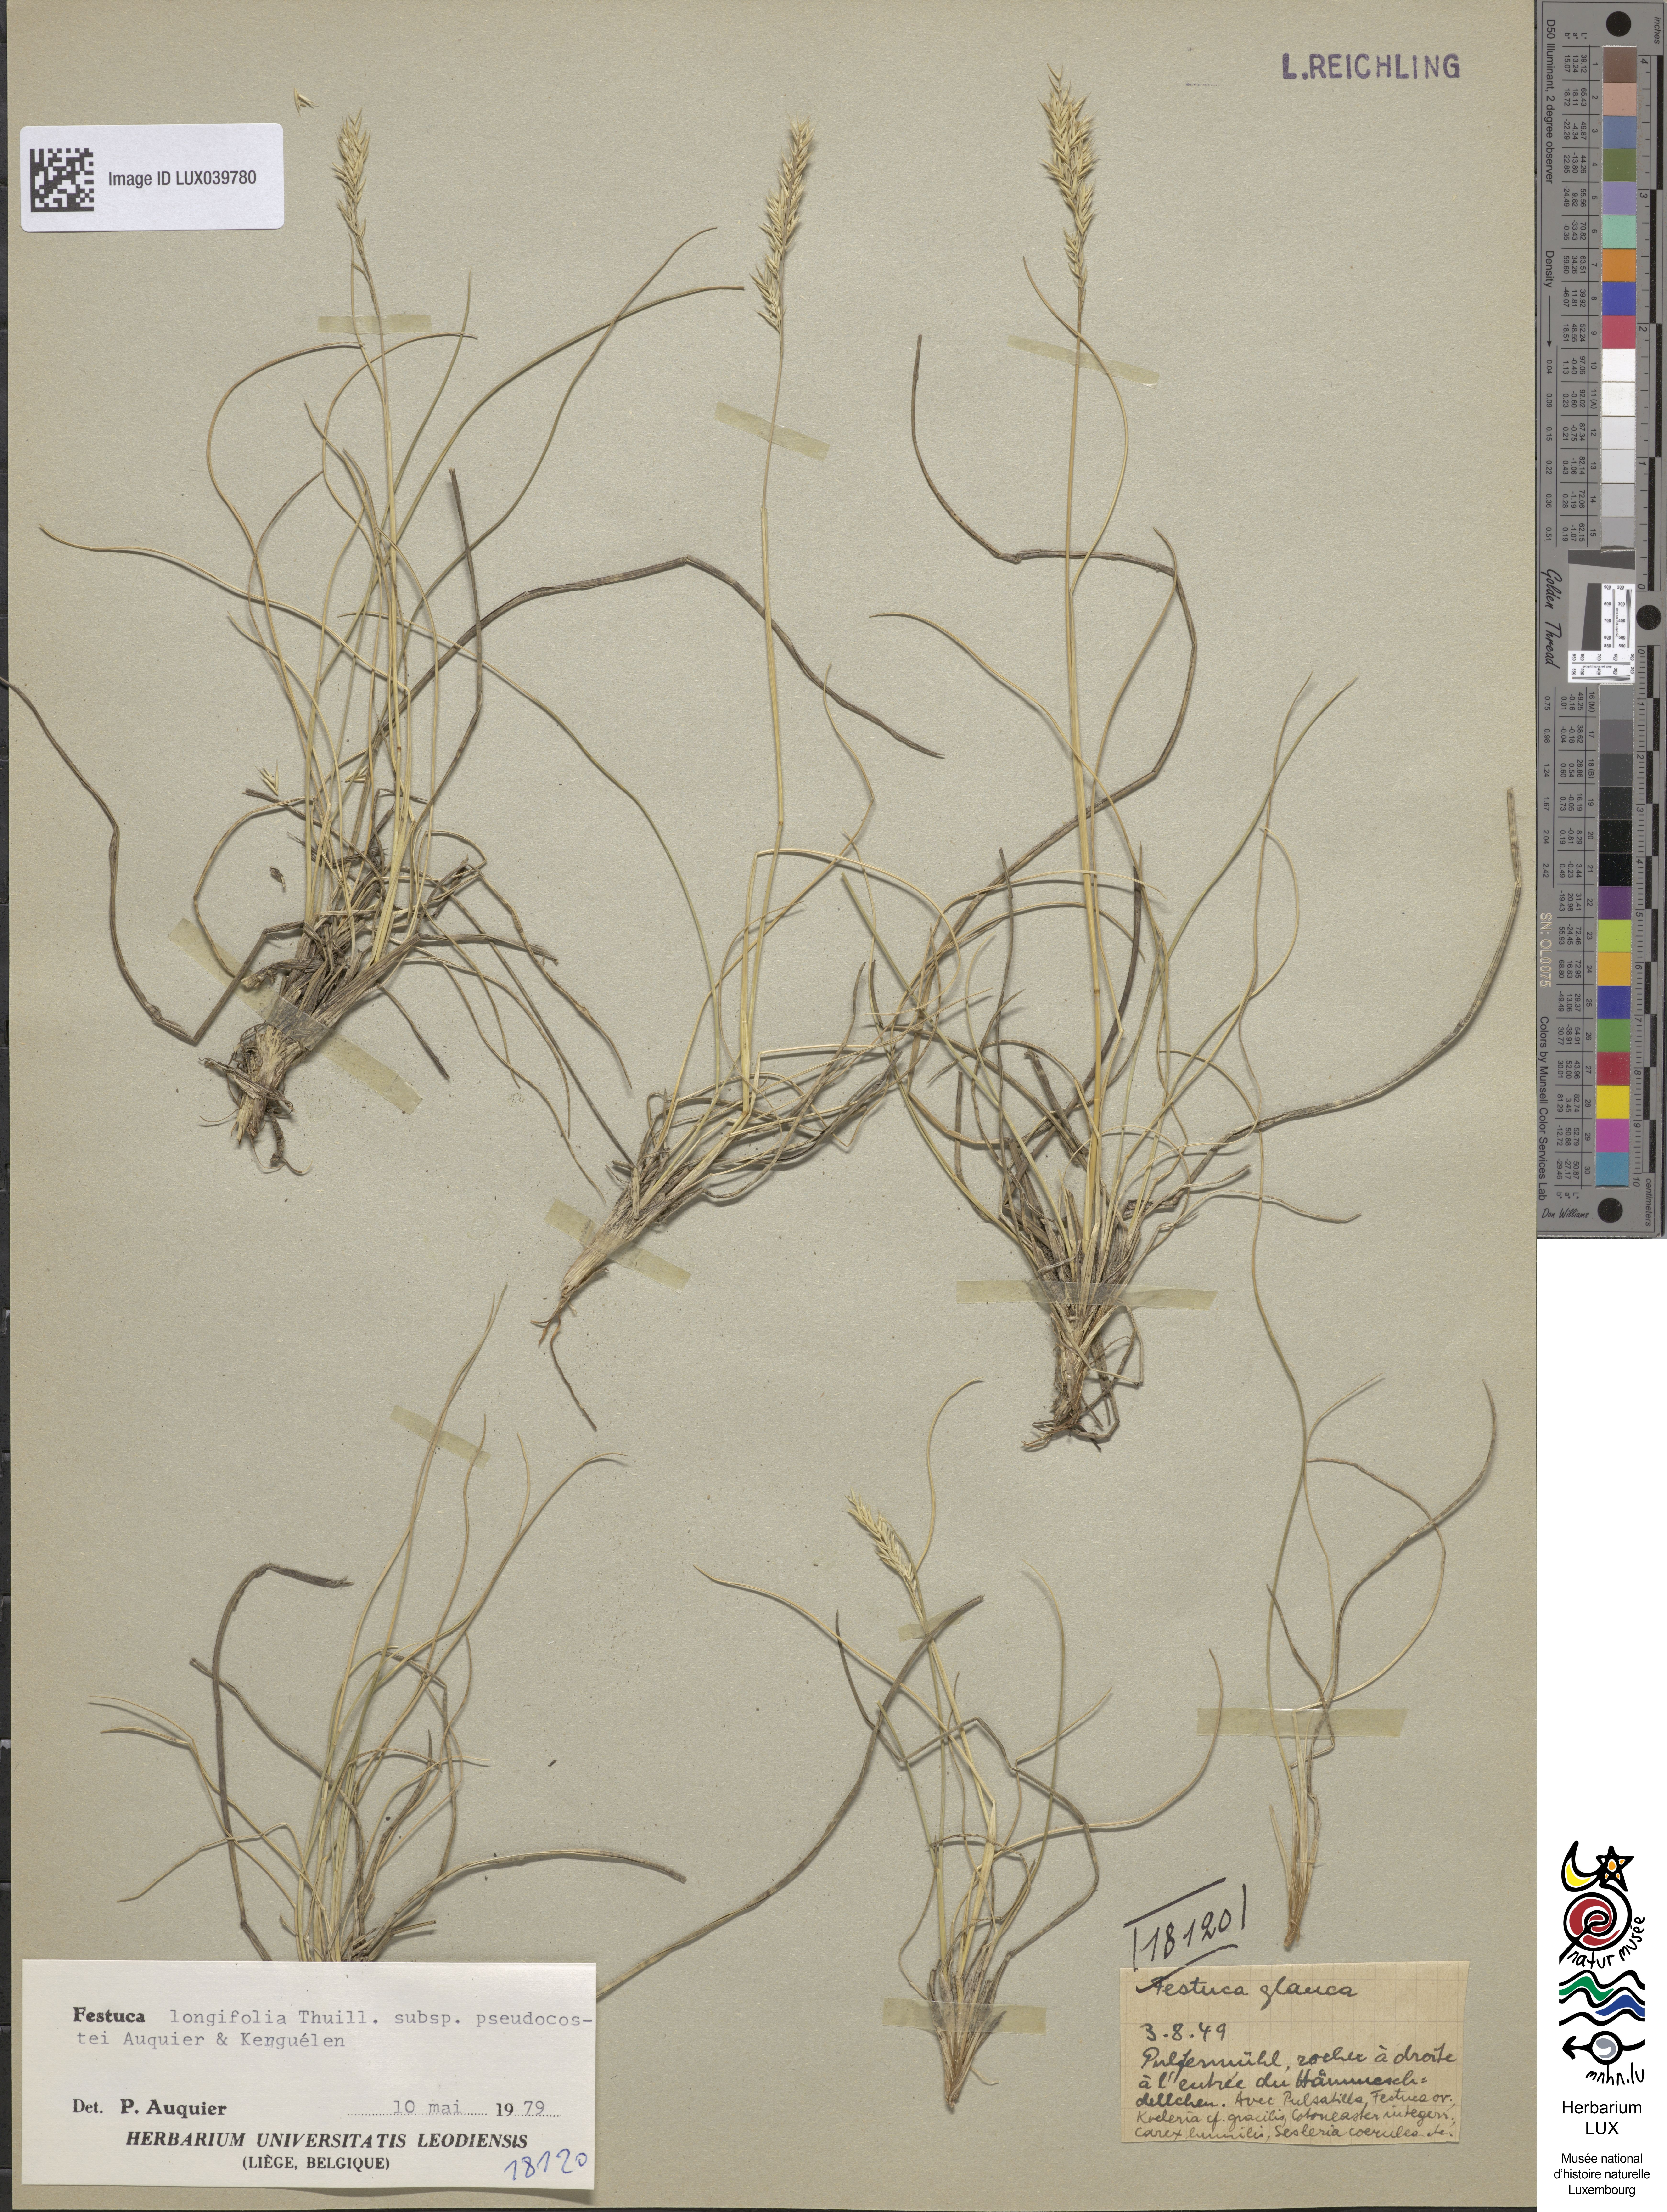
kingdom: Plantae
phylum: Tracheophyta
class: Liliopsida
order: Poales
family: Poaceae
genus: Festuca
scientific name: Festuca glauca
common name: Blue fescue
